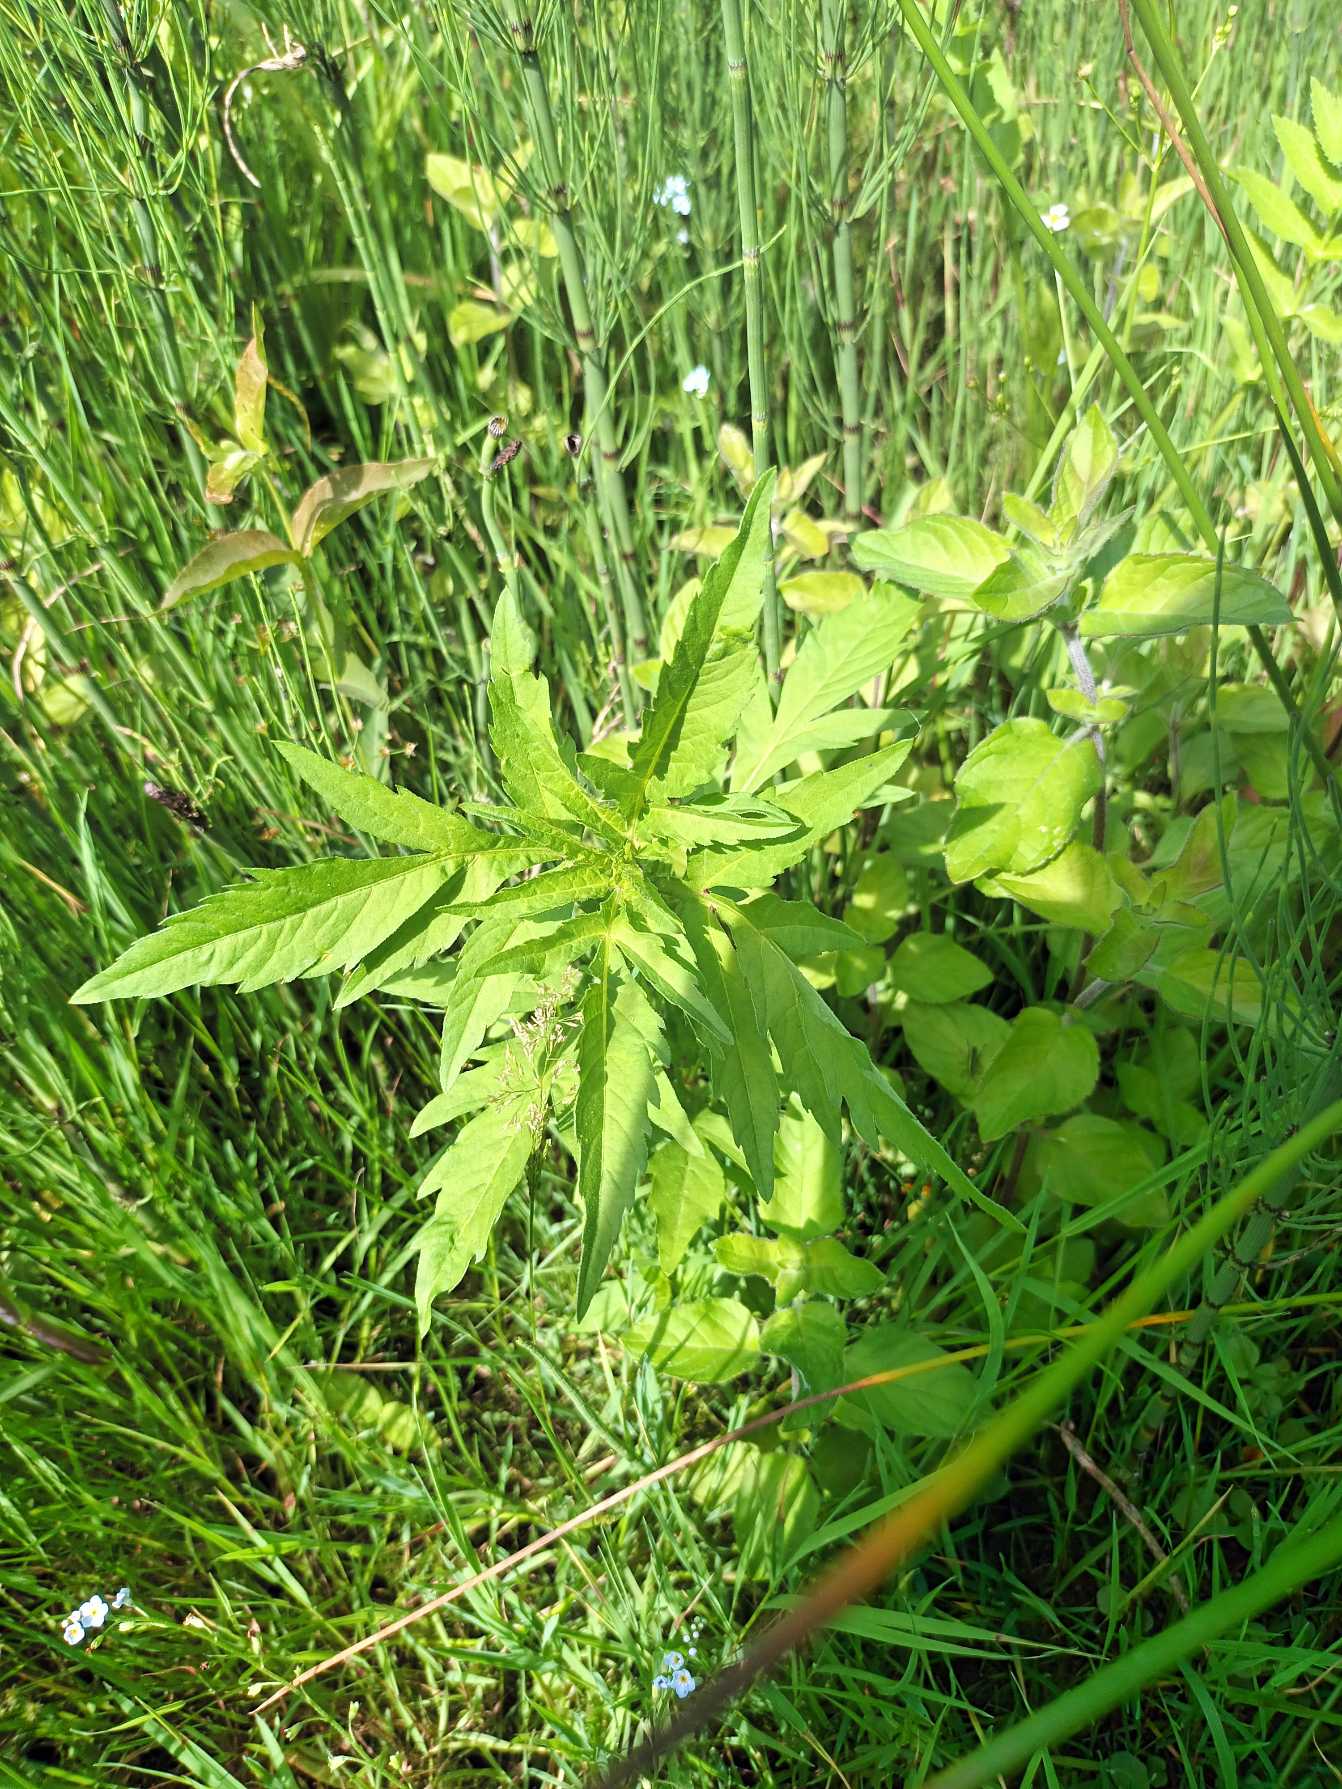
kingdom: Plantae
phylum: Tracheophyta
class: Magnoliopsida
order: Asterales
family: Asteraceae
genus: Bidens
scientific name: Bidens tripartita
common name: Fliget brøndsel
